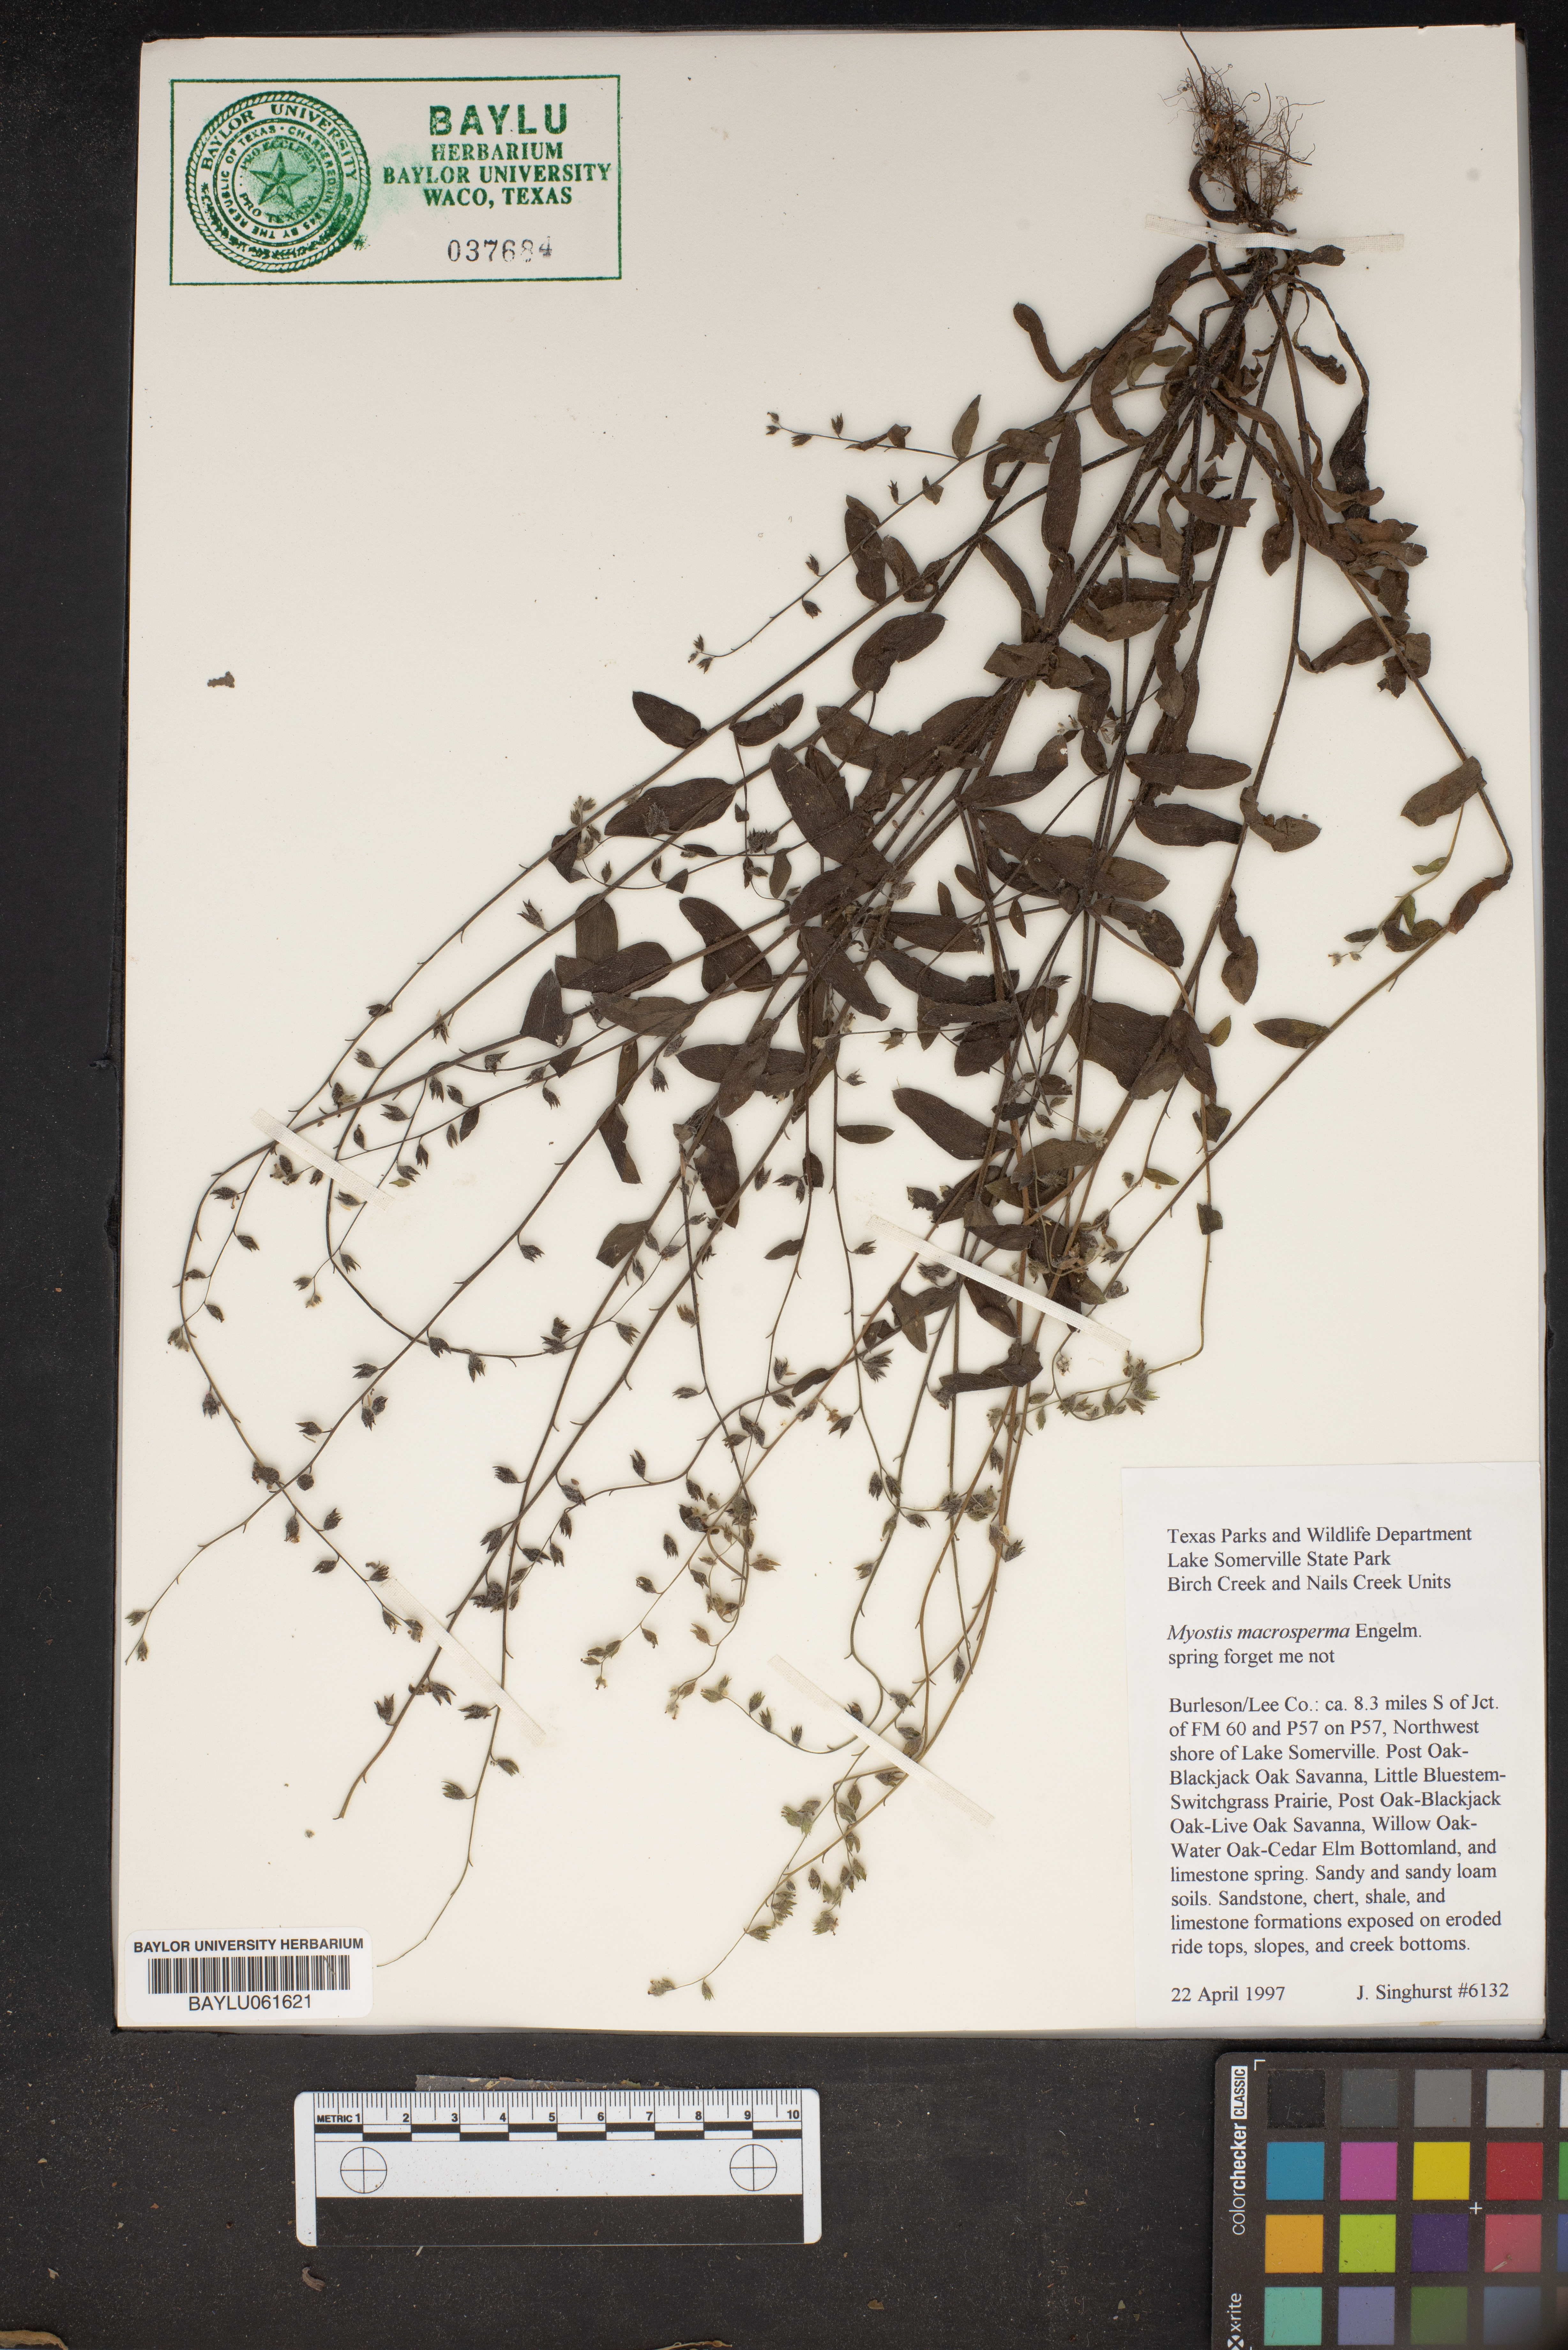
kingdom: Plantae
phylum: Tracheophyta
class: Magnoliopsida
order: Boraginales
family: Boraginaceae
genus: Myosotis
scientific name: Myosotis macrosperma
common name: Large-seed forget-me-not
